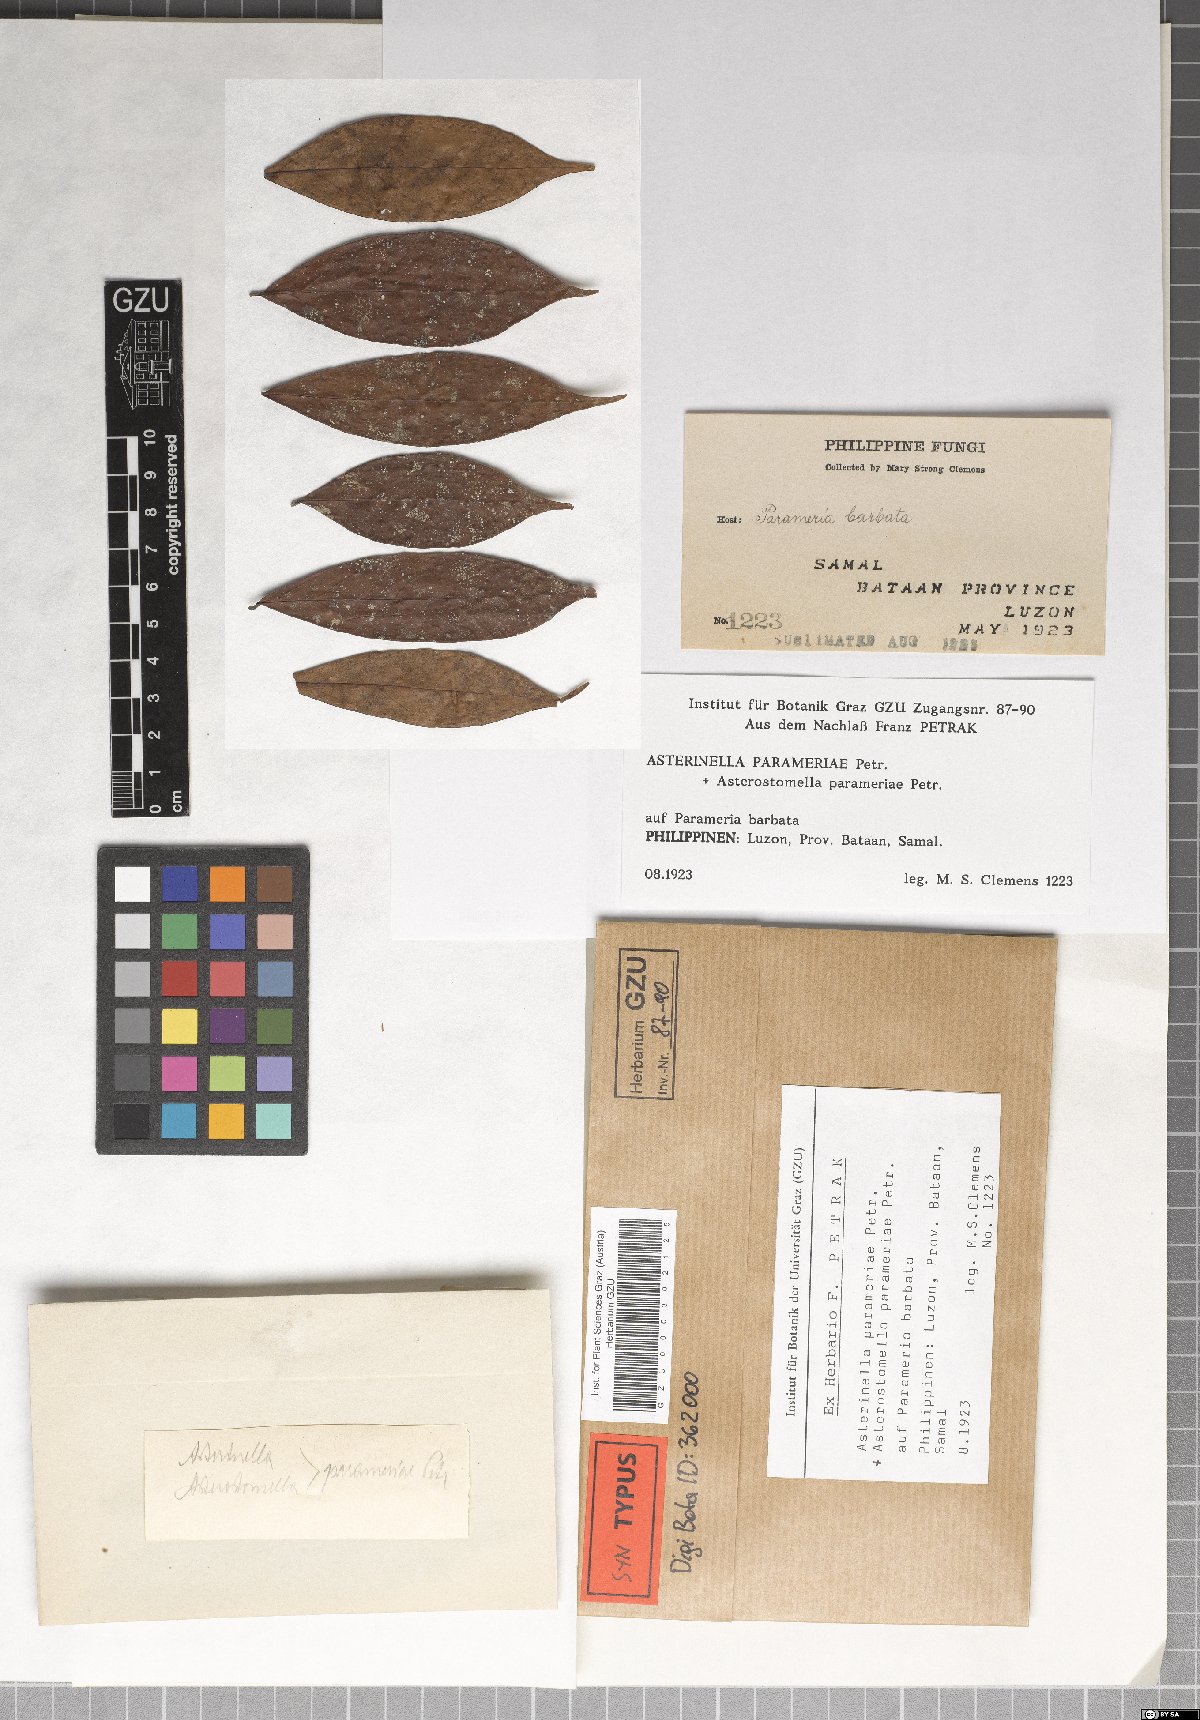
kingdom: Fungi
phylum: Ascomycota
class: Dothideomycetes
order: Microthyriales
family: Microthyriaceae
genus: Asterinella
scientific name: Asterinella parameriae
